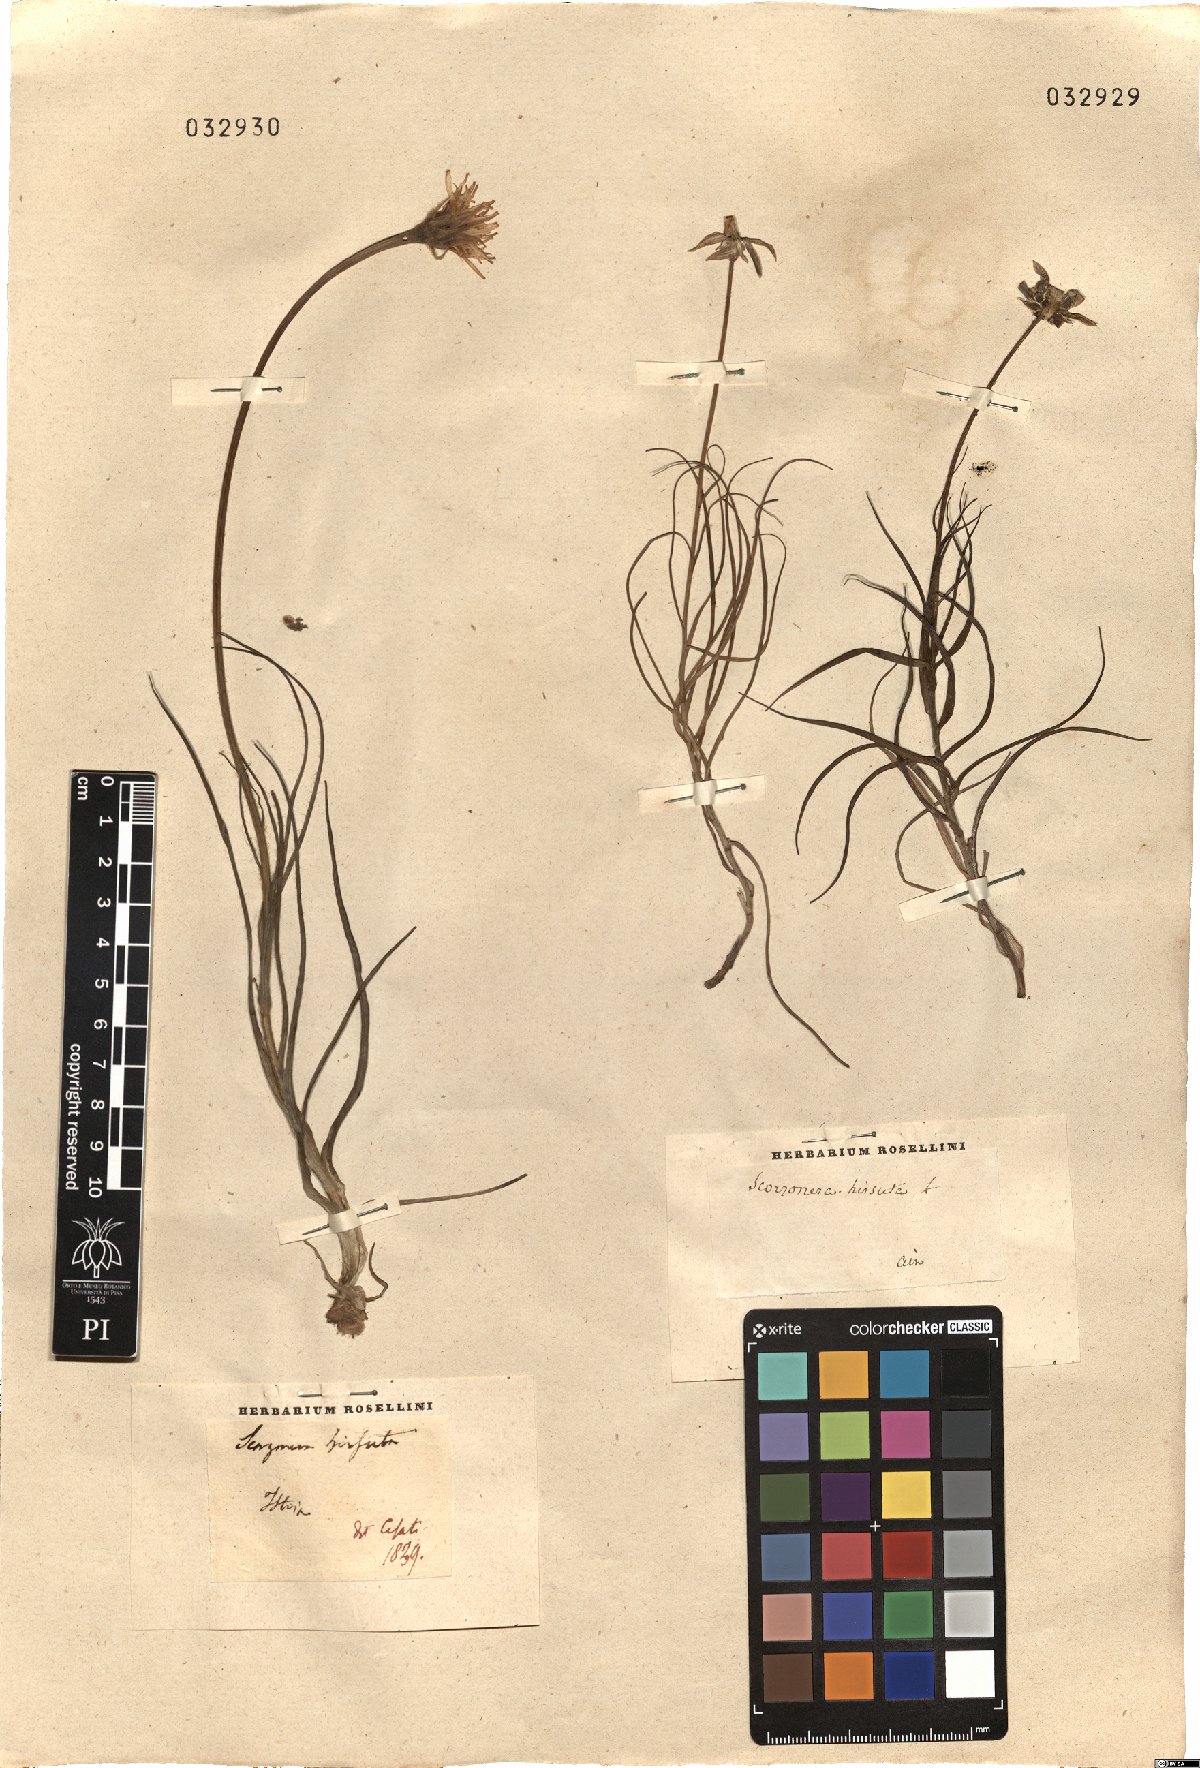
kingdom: Plantae
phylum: Tracheophyta
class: Magnoliopsida
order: Asterales
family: Asteraceae
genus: Gelasia
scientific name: Gelasia hirsuta
